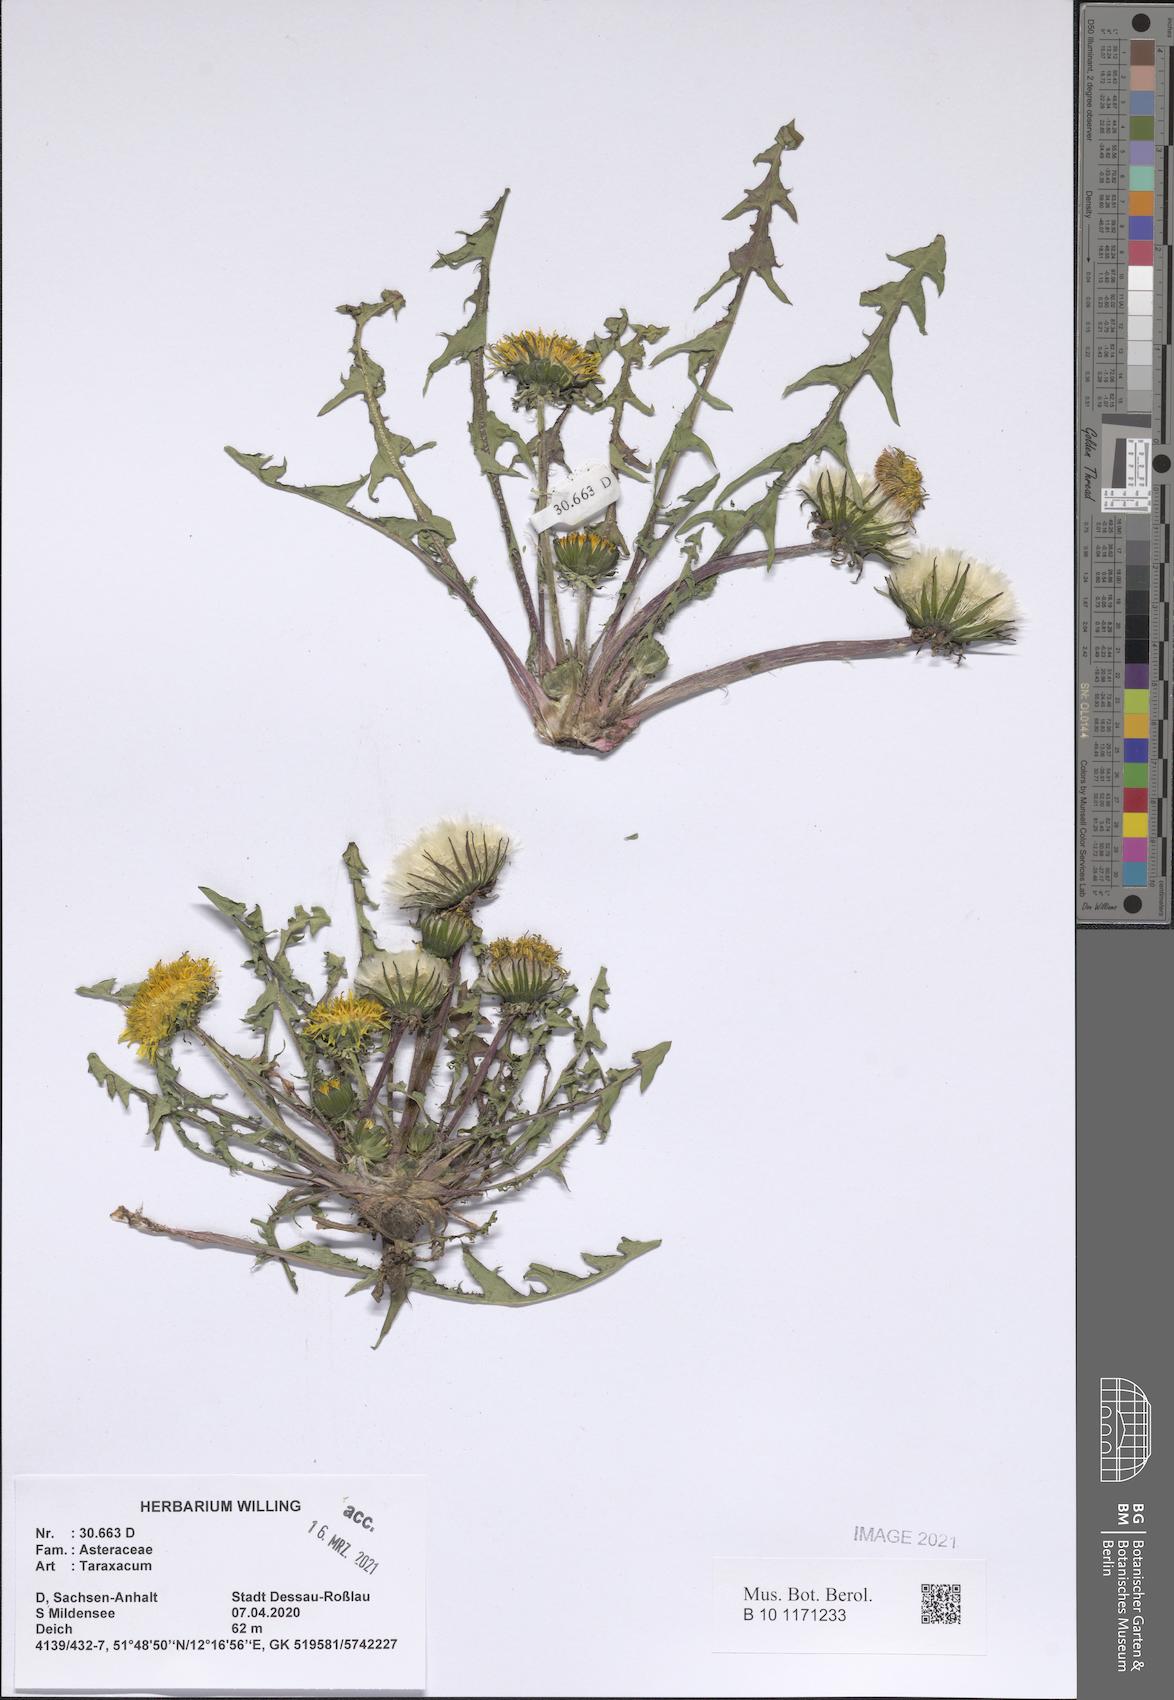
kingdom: Plantae
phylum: Tracheophyta
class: Magnoliopsida
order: Asterales
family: Asteraceae
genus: Taraxacum
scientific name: Taraxacum
